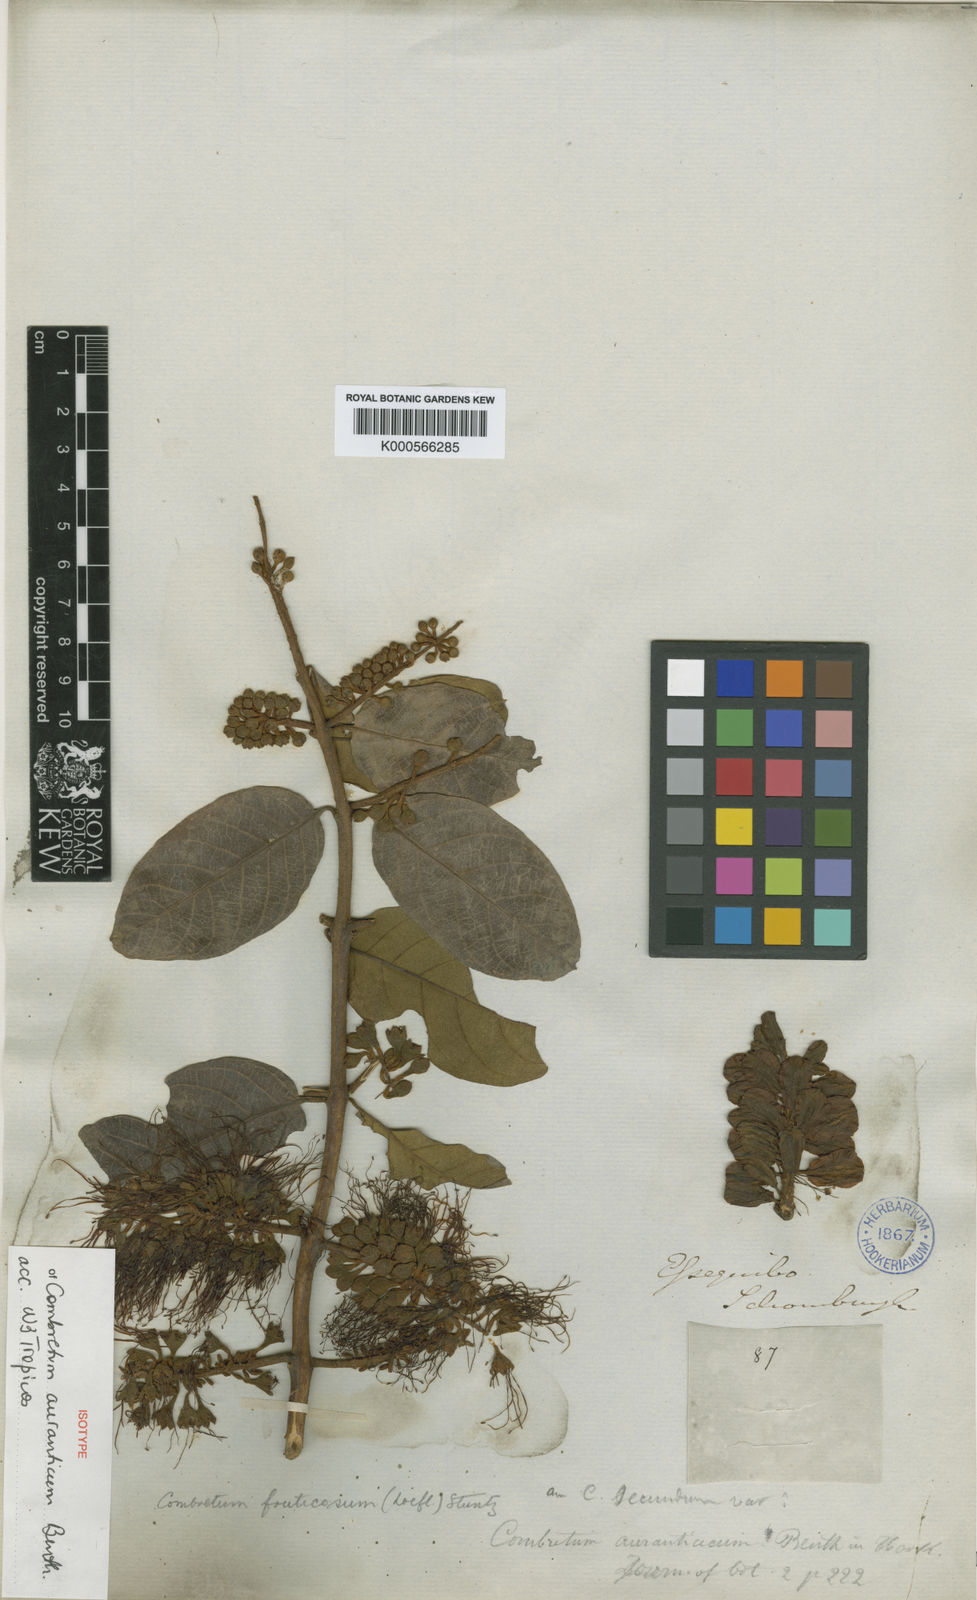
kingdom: Plantae
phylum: Tracheophyta
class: Magnoliopsida
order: Myrtales
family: Combretaceae
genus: Combretum
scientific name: Combretum fruticosum
